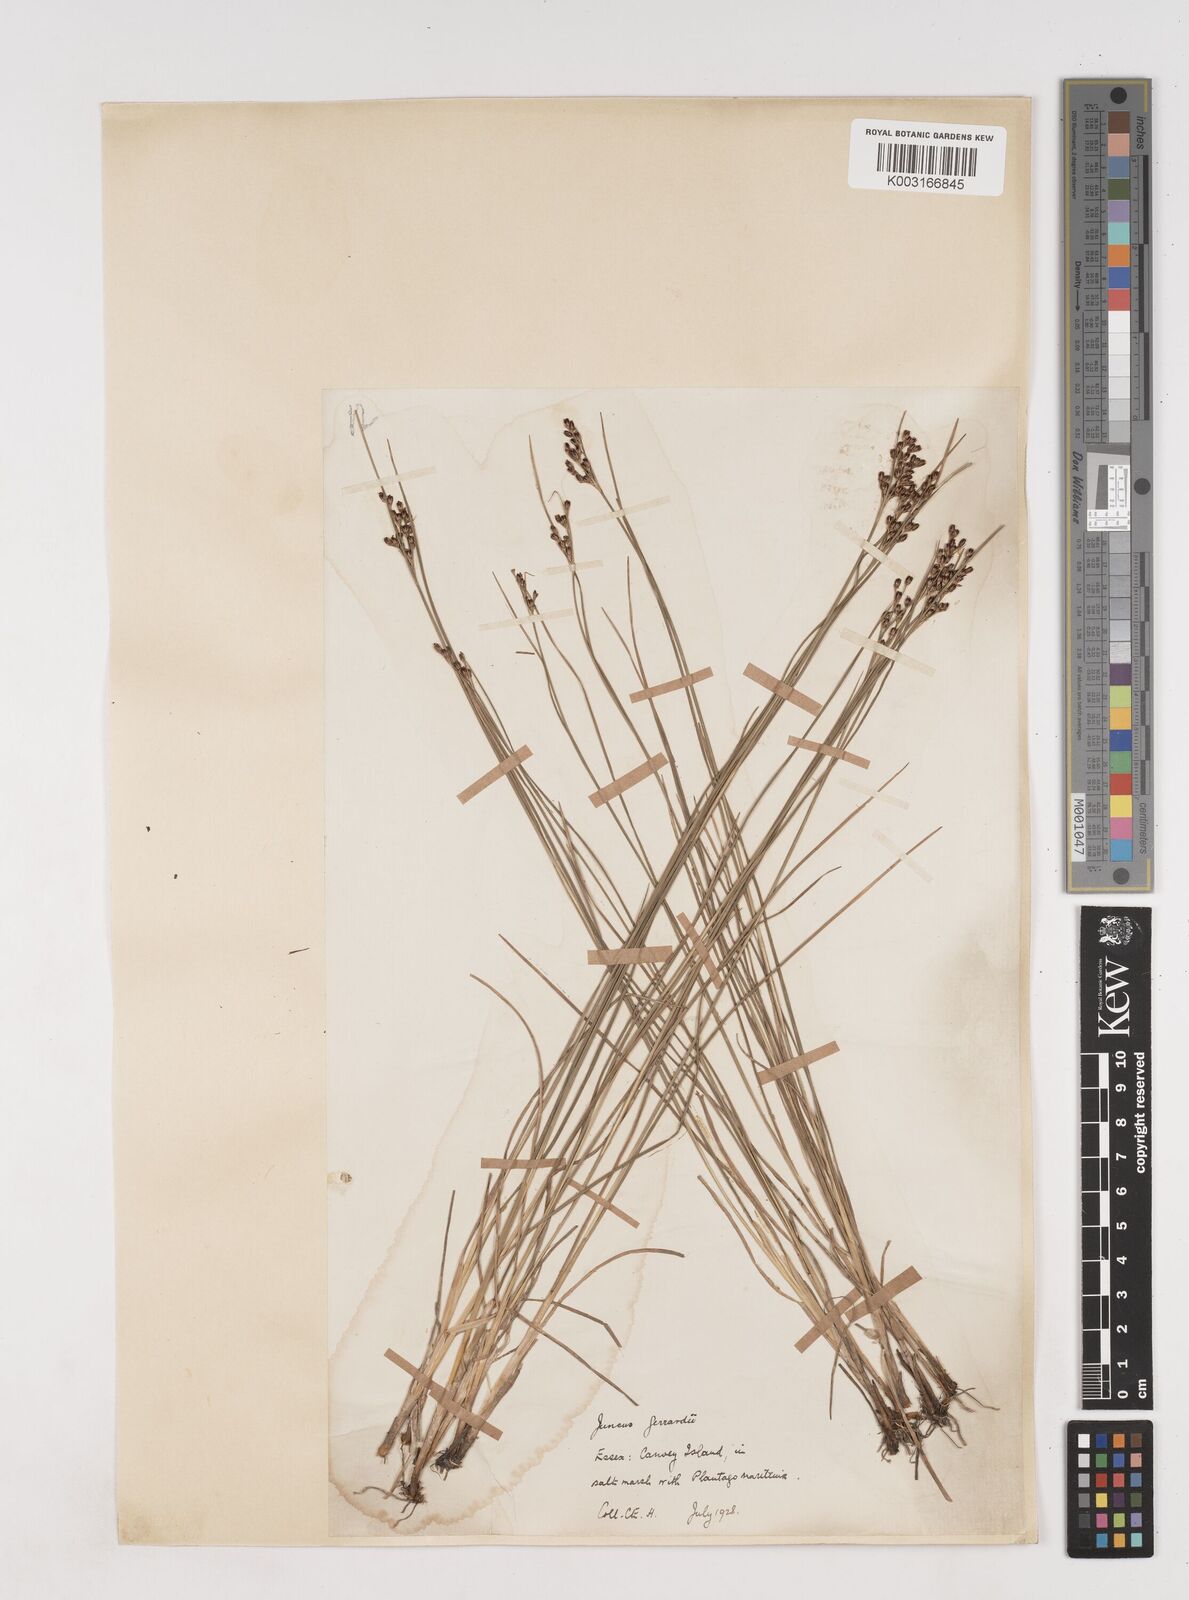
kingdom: Plantae
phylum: Tracheophyta
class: Liliopsida
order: Poales
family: Juncaceae
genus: Juncus
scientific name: Juncus gerardi
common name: Saltmarsh rush
